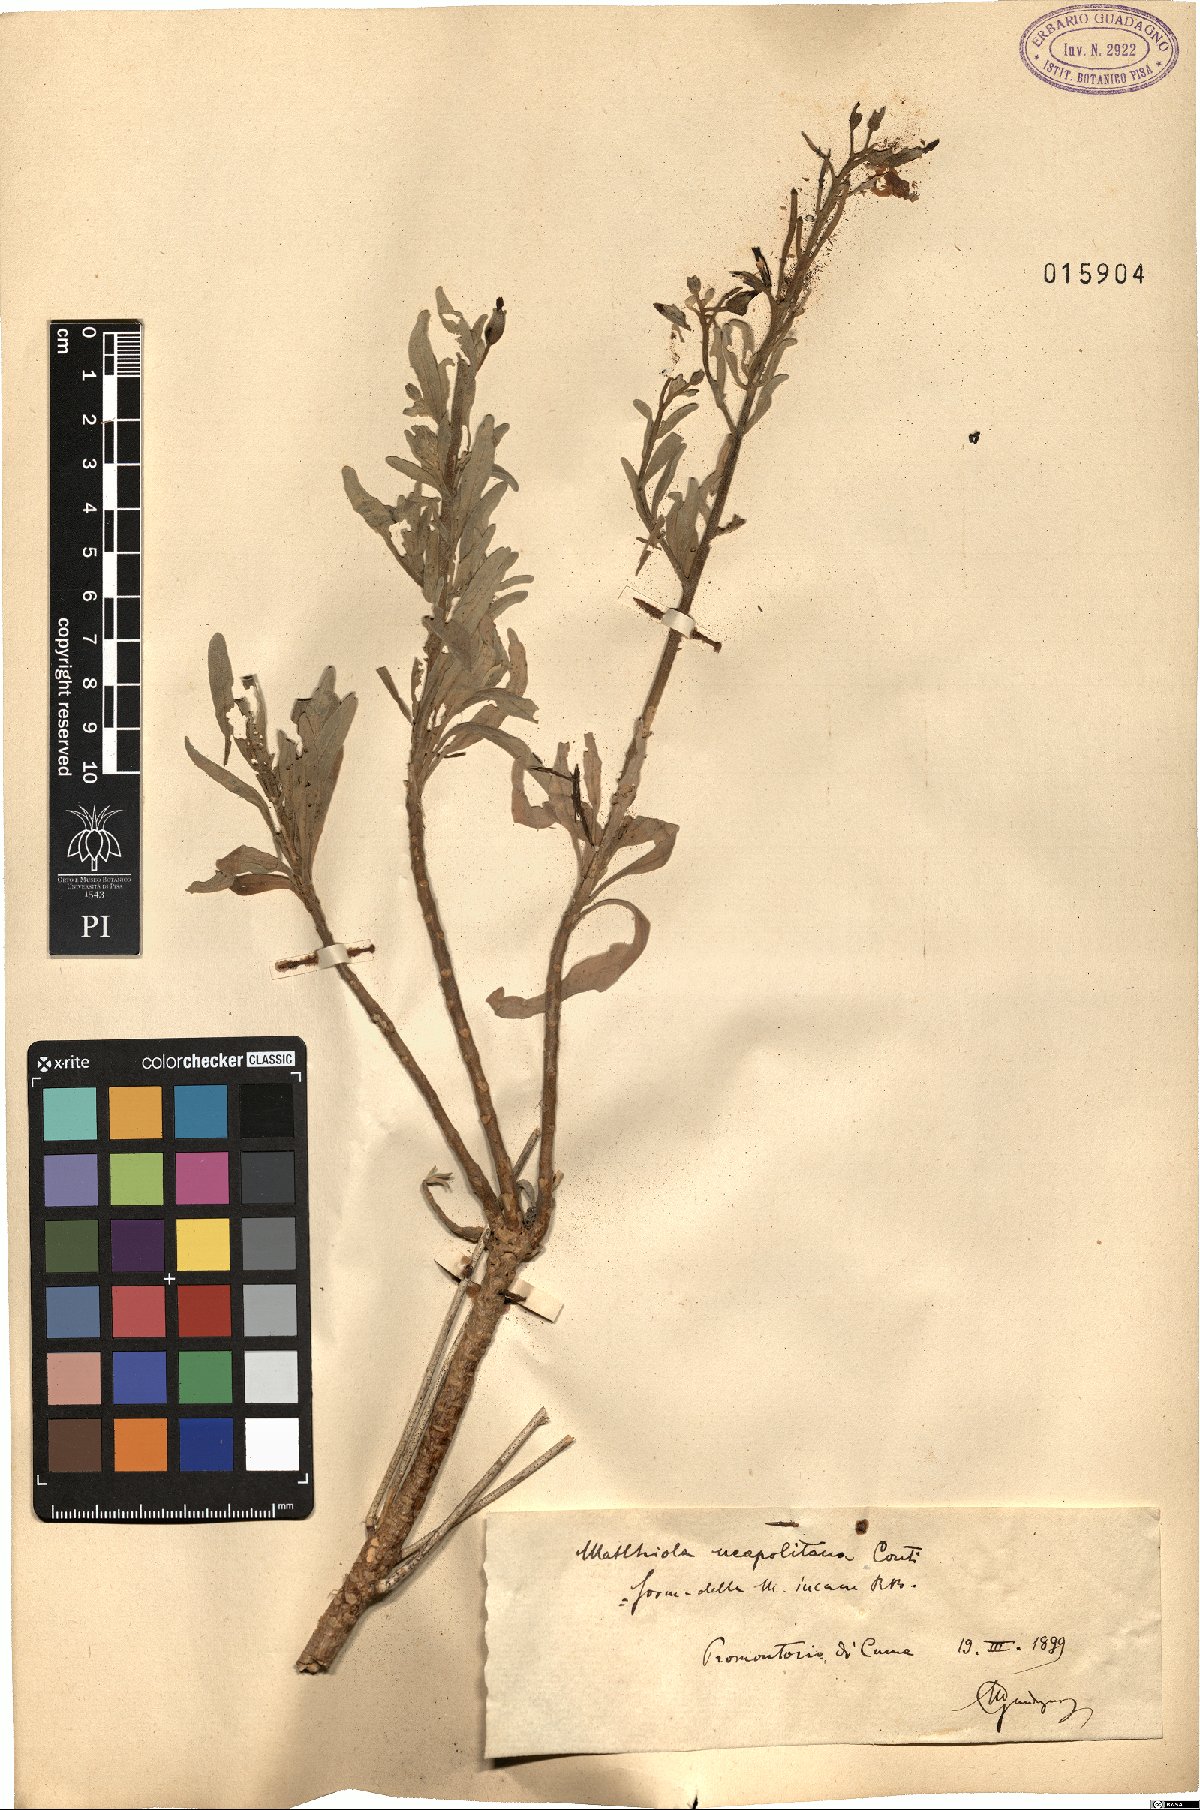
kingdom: Plantae
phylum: Tracheophyta
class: Magnoliopsida
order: Brassicales
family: Brassicaceae
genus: Matthiola
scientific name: Matthiola incana
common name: Hoary stock
